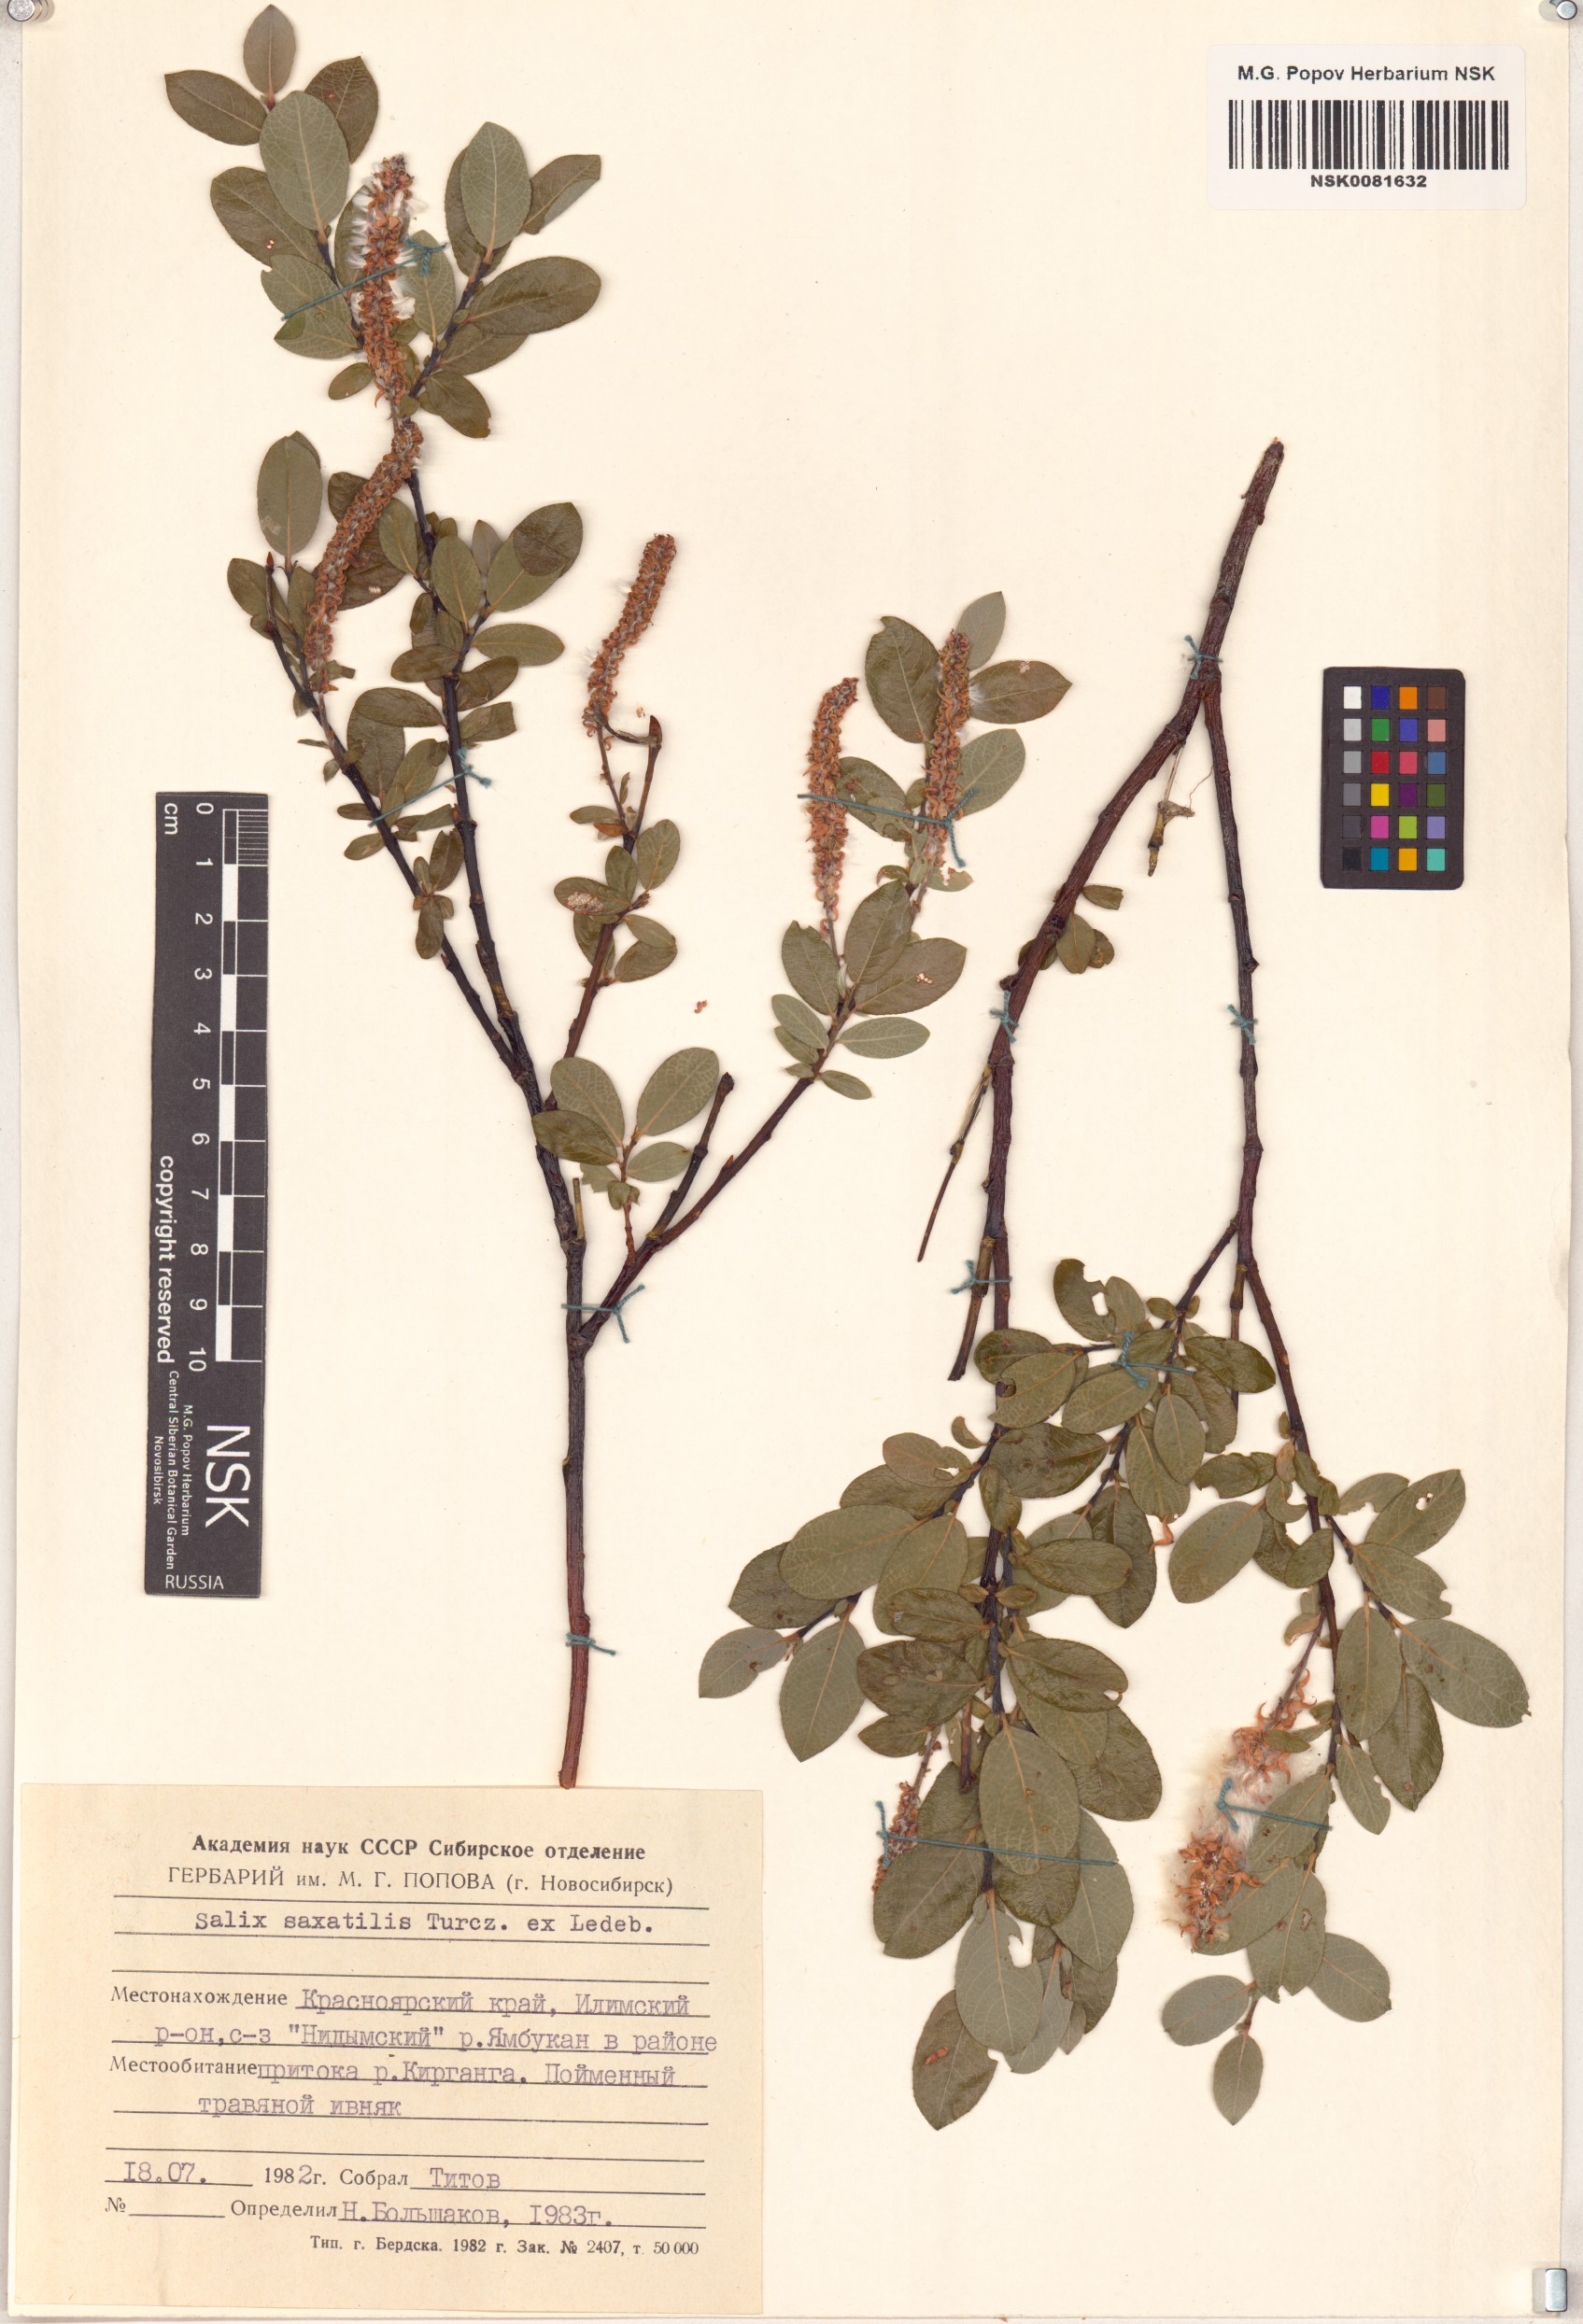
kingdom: Plantae
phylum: Tracheophyta
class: Magnoliopsida
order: Malpighiales
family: Salicaceae
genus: Salix
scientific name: Salix saxatilis
